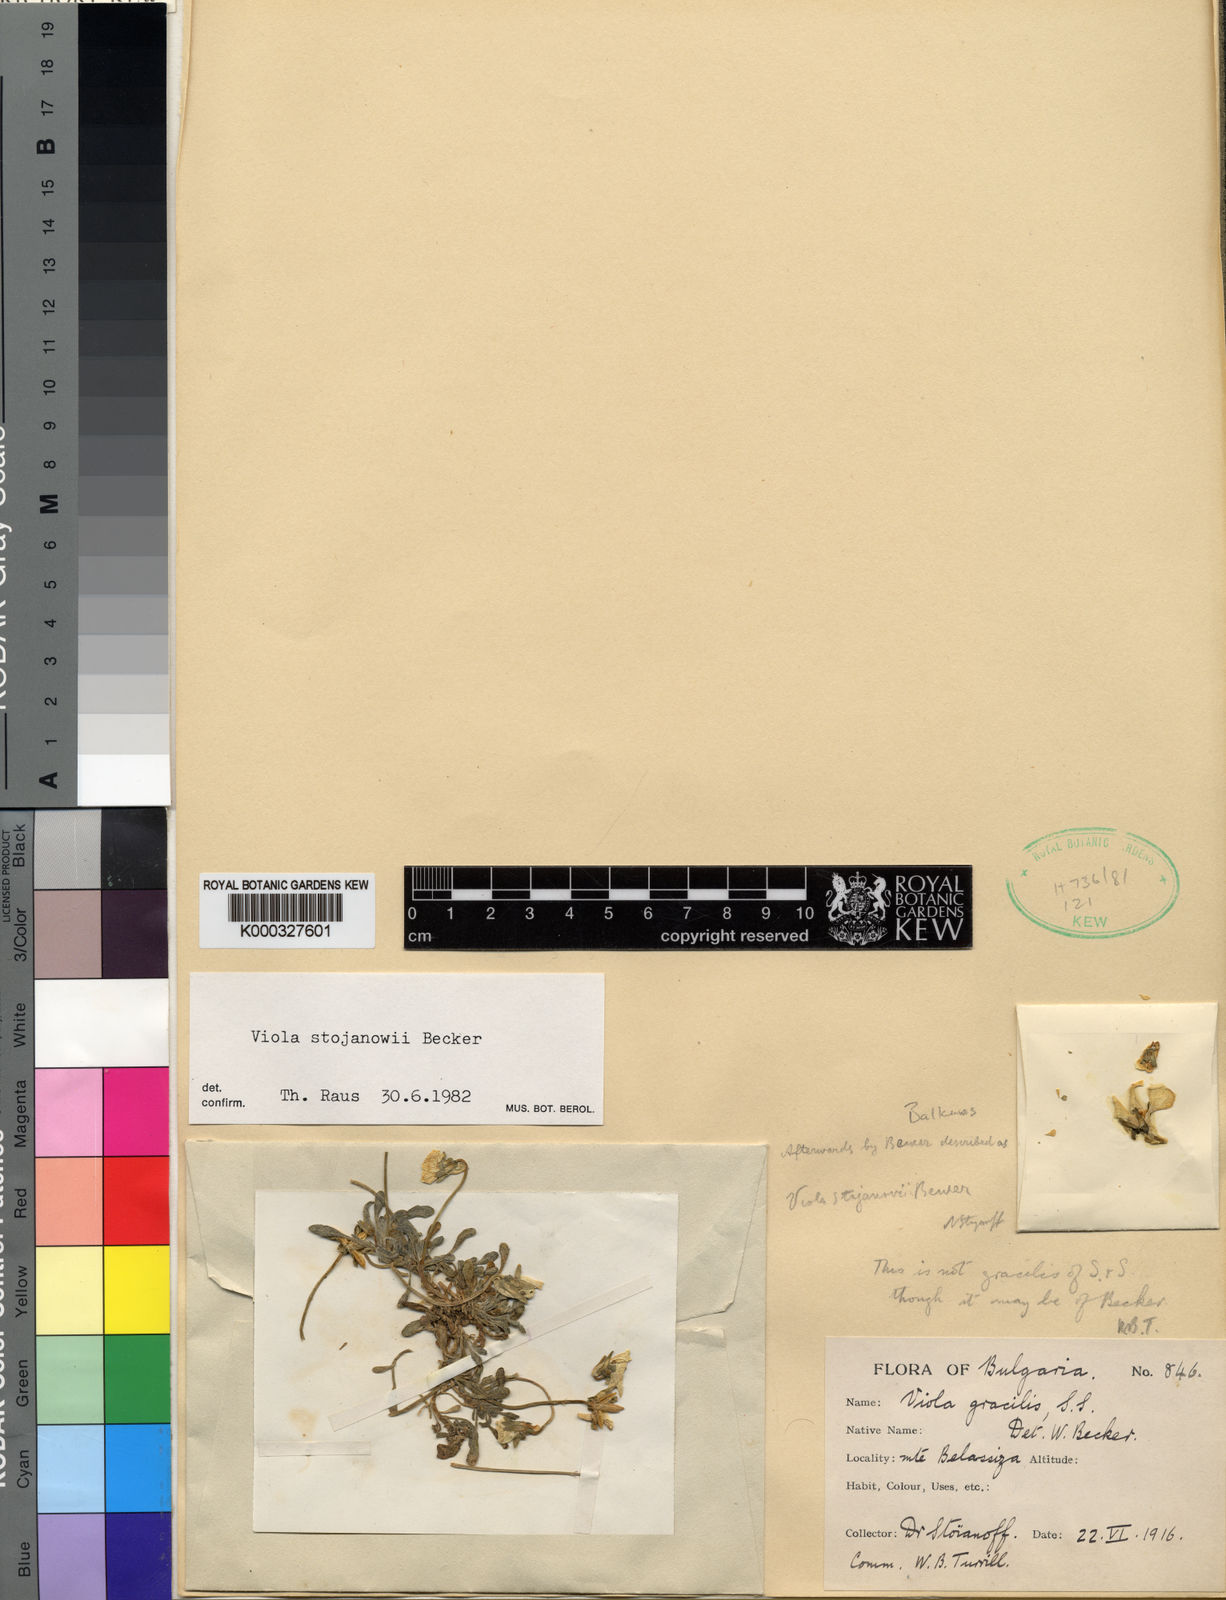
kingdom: Plantae
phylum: Tracheophyta
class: Magnoliopsida
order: Malpighiales
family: Violaceae
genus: Viola
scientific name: Viola stojanowii
